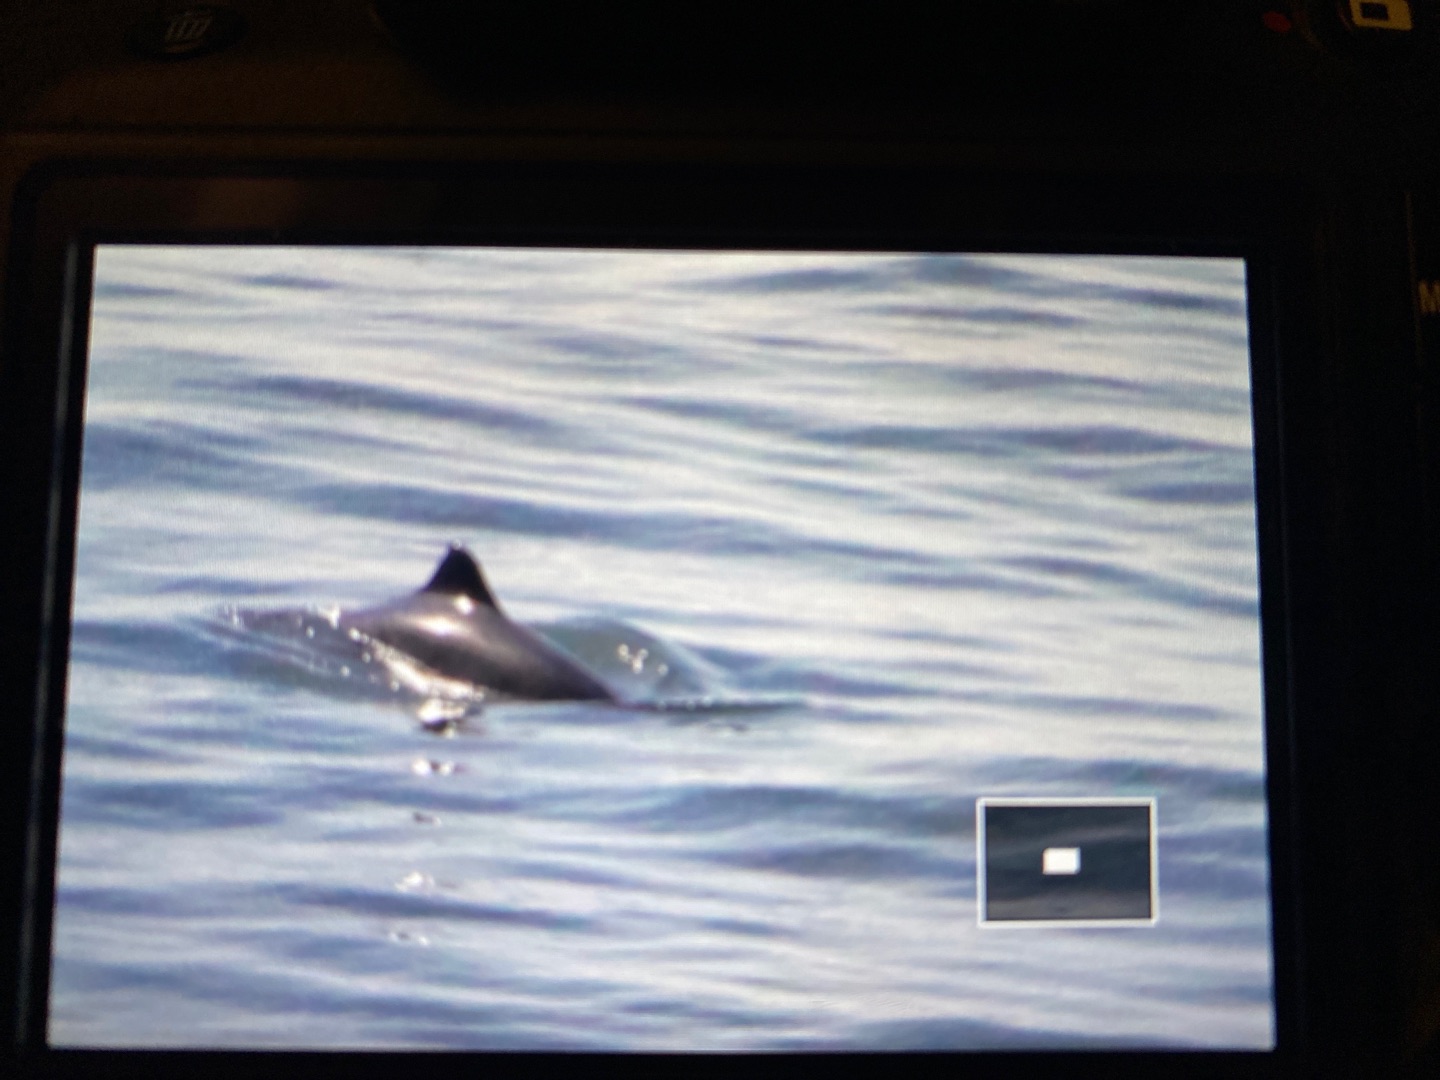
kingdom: Animalia
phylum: Chordata
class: Mammalia
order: Cetacea
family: Phocoenidae
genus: Phocoena
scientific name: Phocoena phocoena
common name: Marsvin
